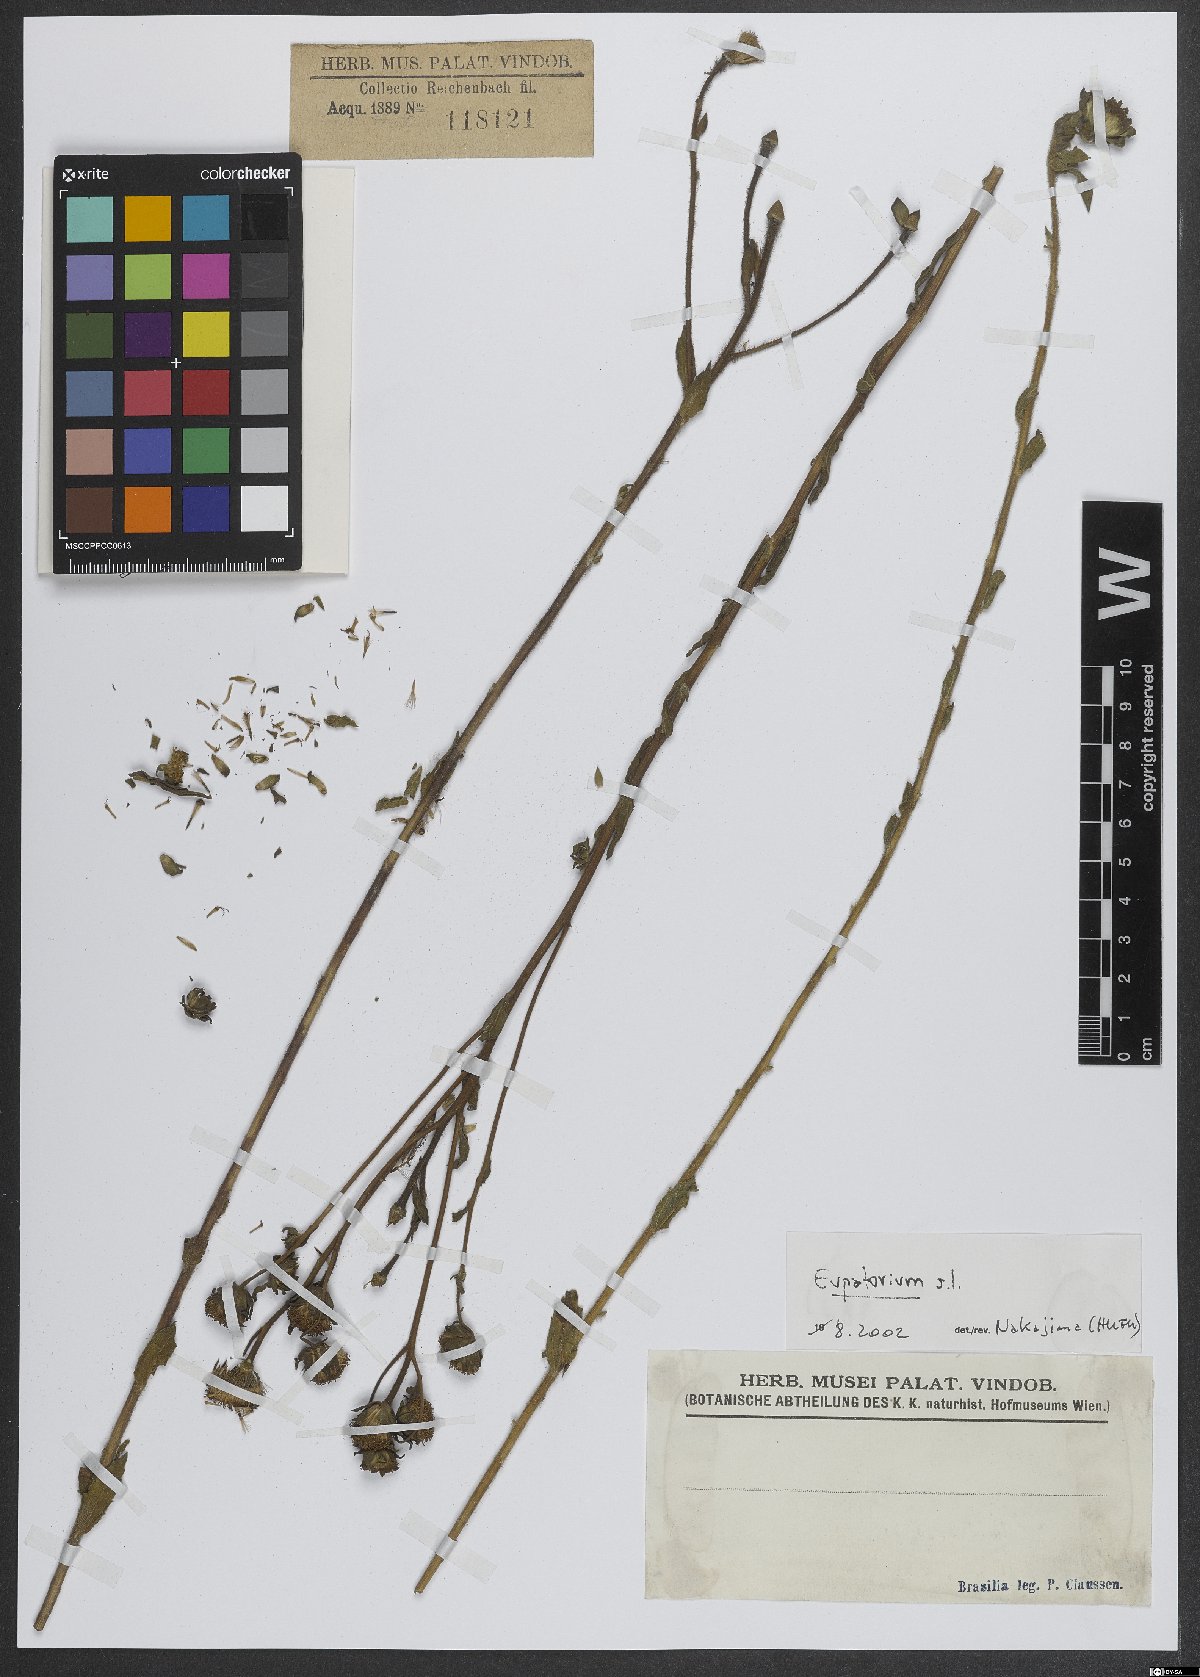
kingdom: Plantae
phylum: Tracheophyta
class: Magnoliopsida
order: Asterales
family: Asteraceae
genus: Eupatorium
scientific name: Eupatorium
